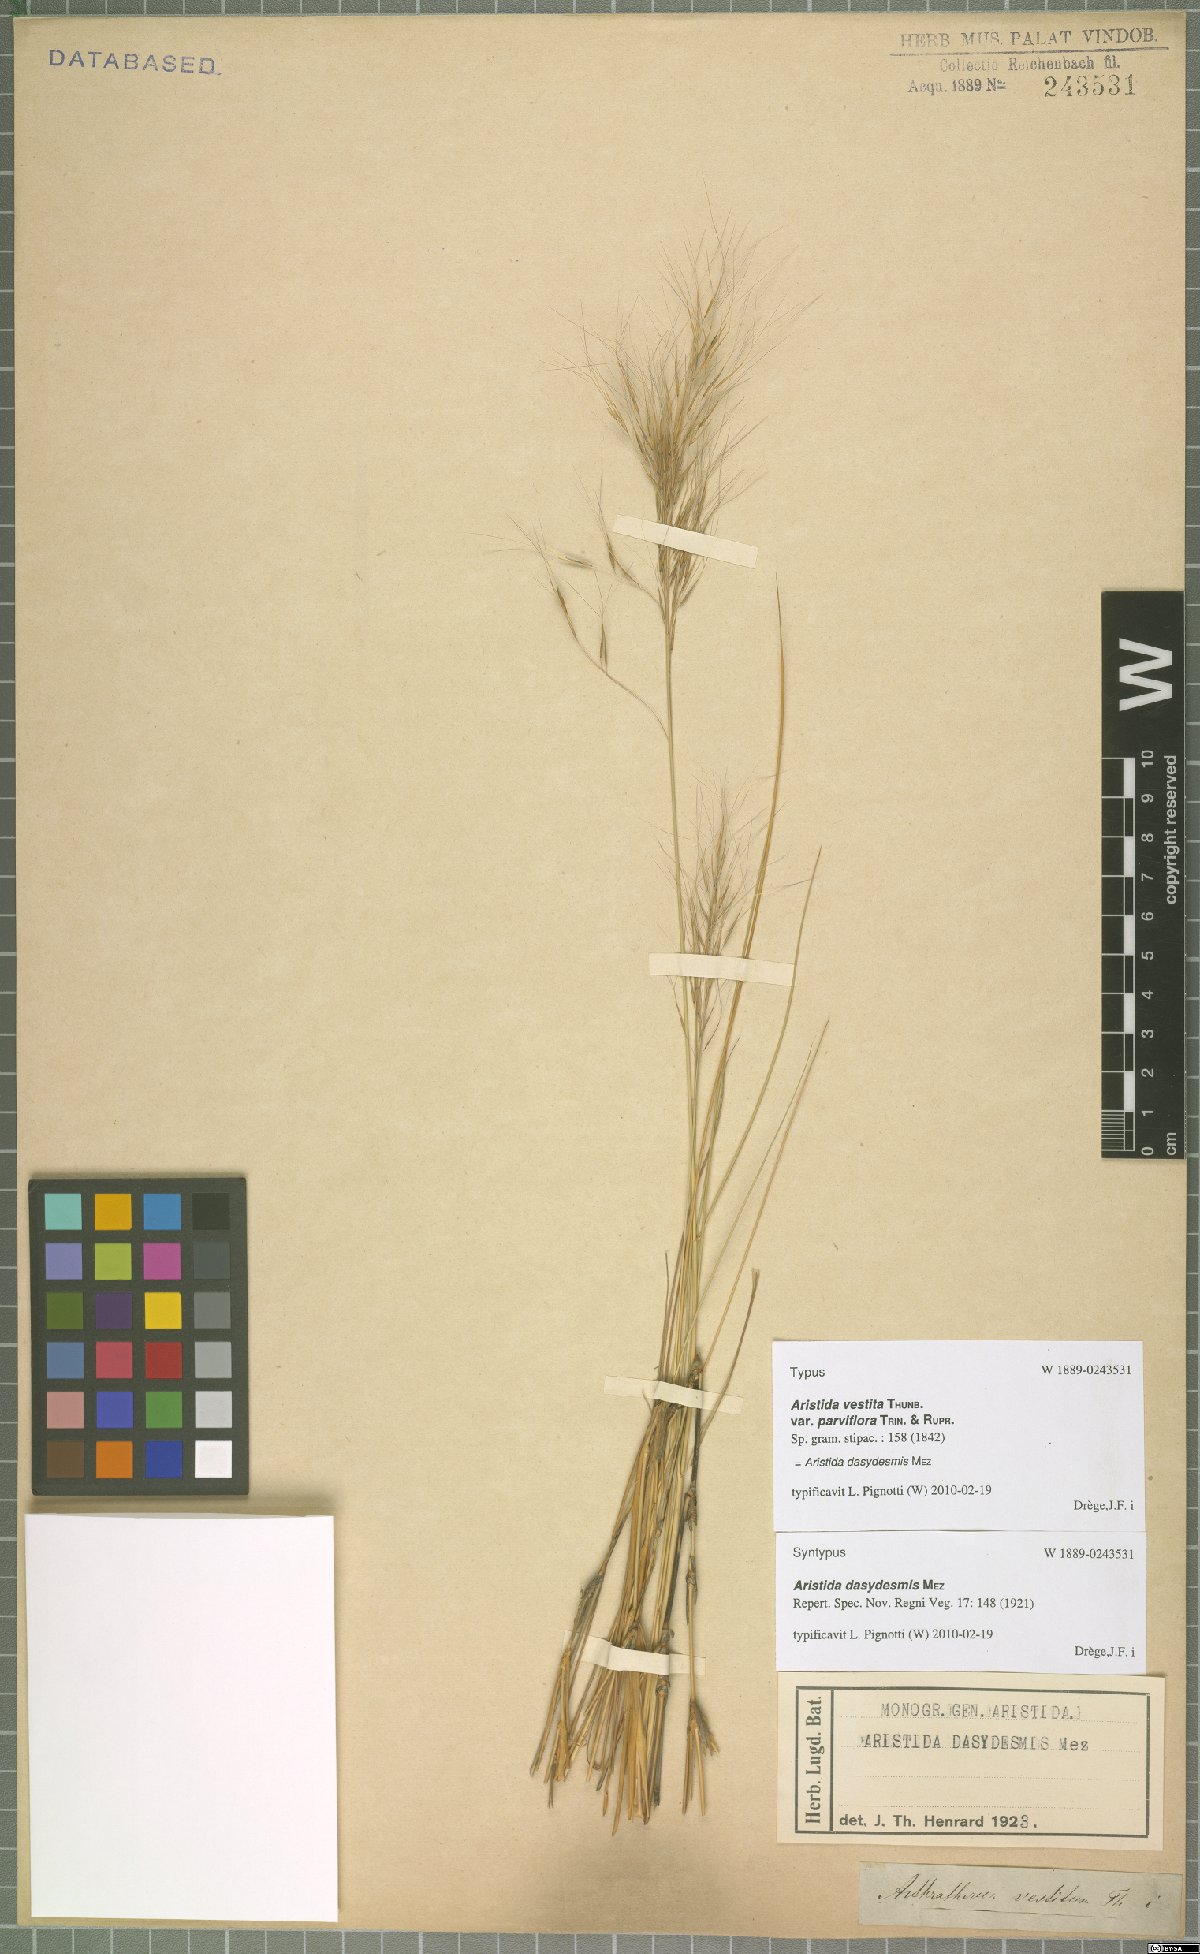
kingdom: Plantae
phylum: Tracheophyta
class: Liliopsida
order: Poales
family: Poaceae
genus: Aristida
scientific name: Aristida dasydesmis
